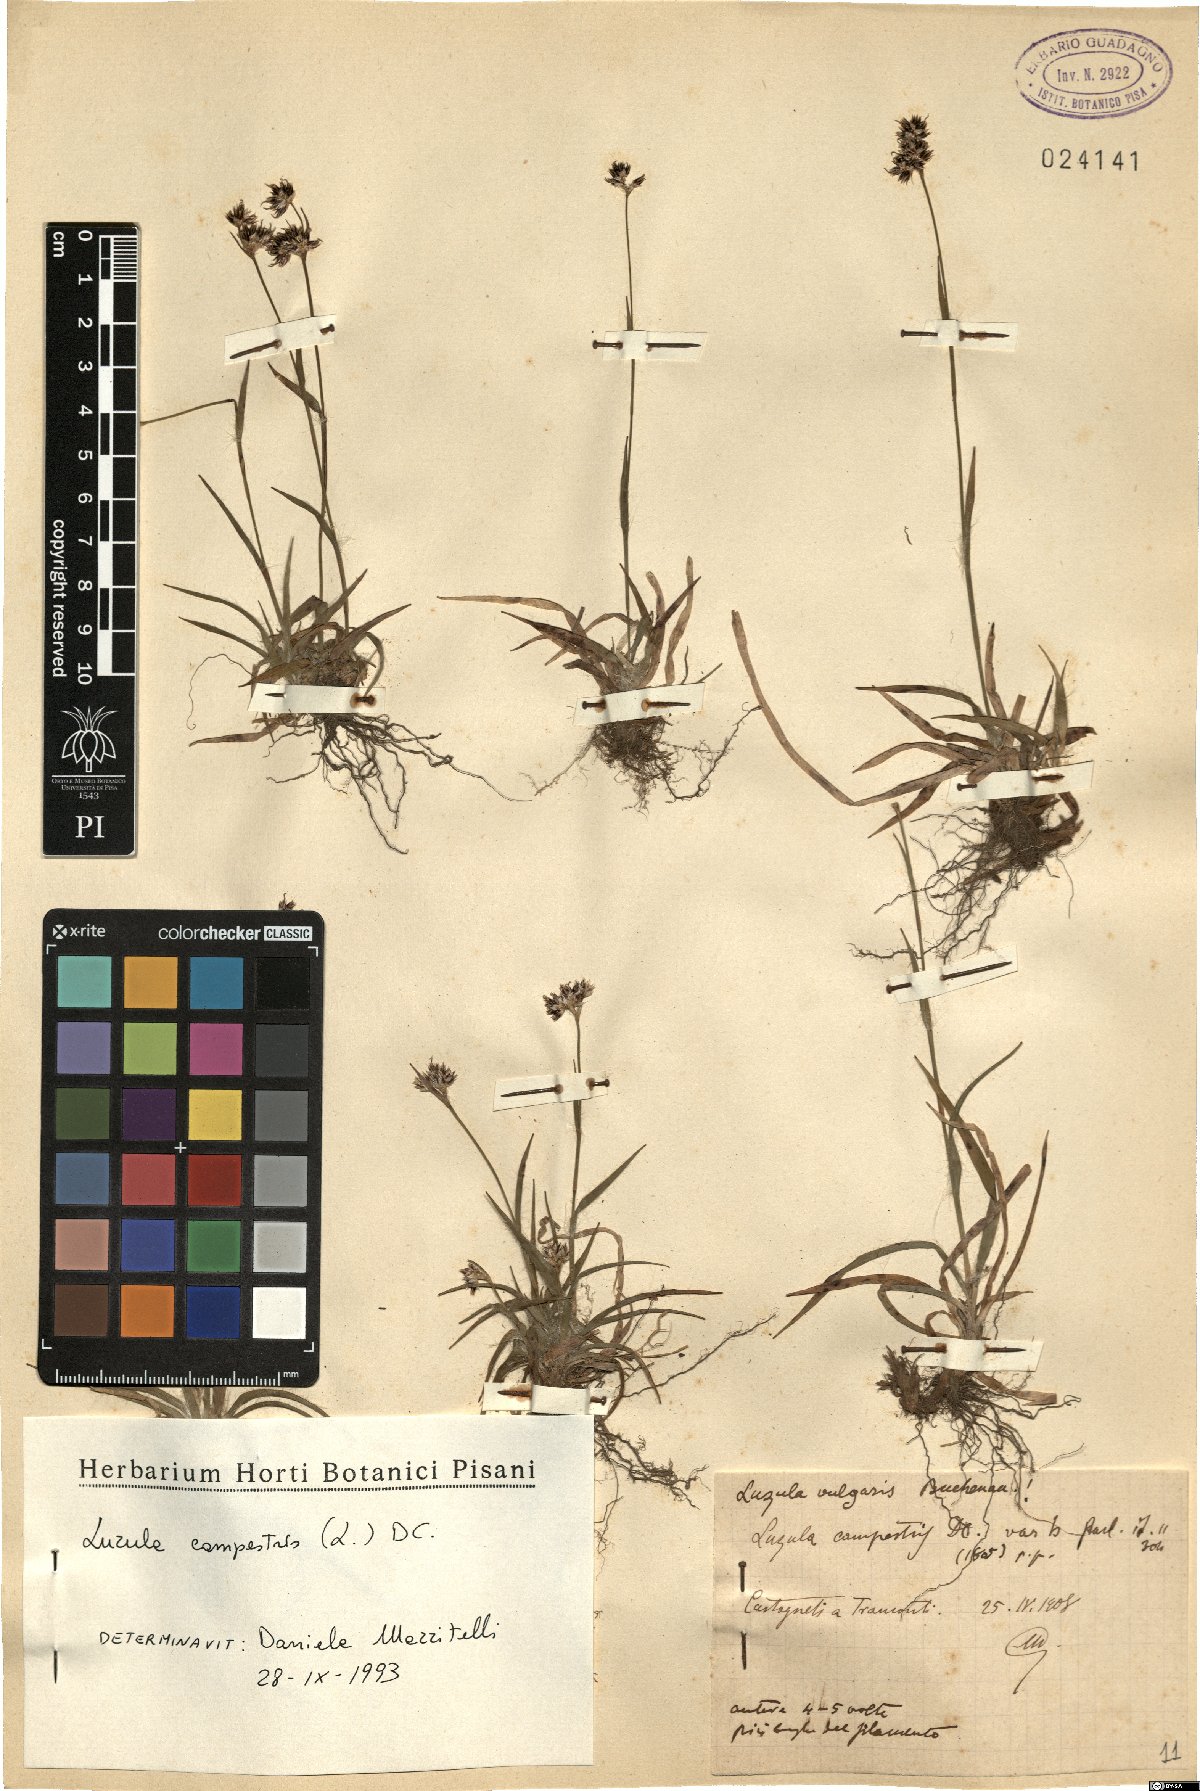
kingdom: Plantae
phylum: Tracheophyta
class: Liliopsida
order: Poales
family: Juncaceae
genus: Luzula
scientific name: Luzula campestris
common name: Field wood-rush
